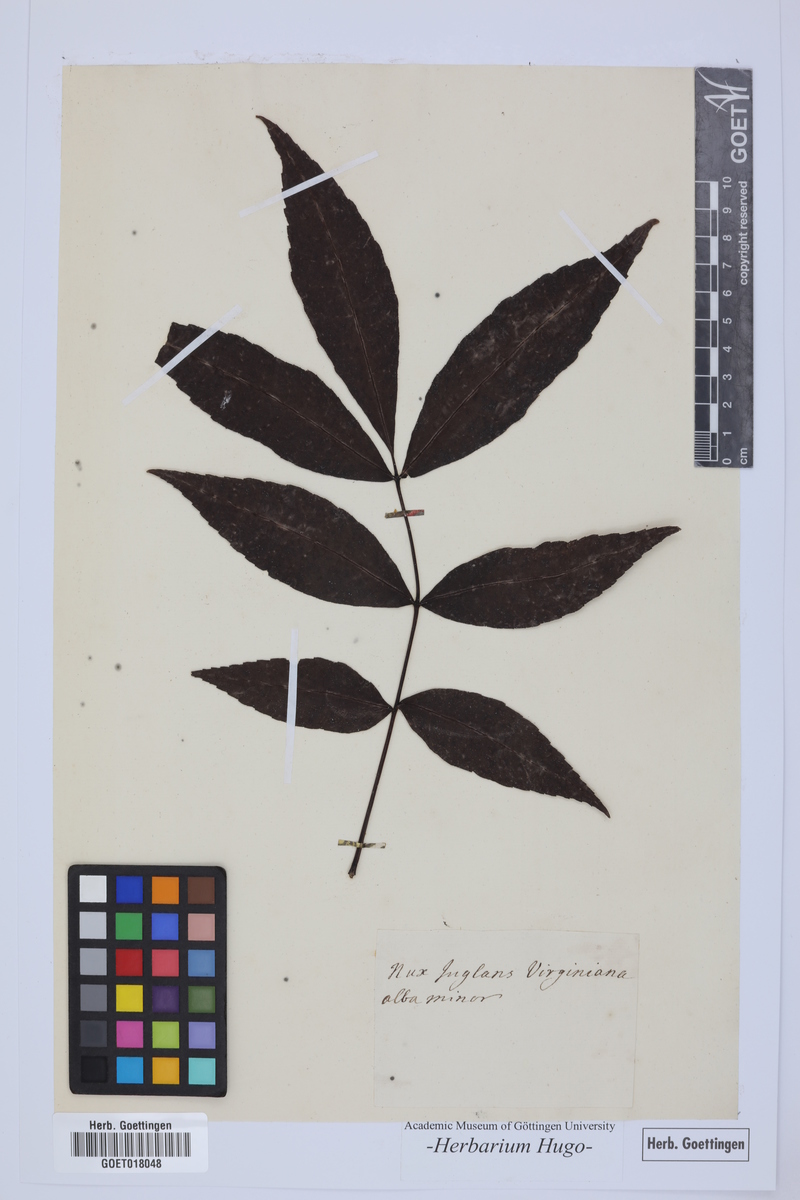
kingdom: Plantae
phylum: Tracheophyta
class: Magnoliopsida
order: Fagales
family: Juglandaceae
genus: Carya
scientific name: Carya alba
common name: Mockernut hickory
